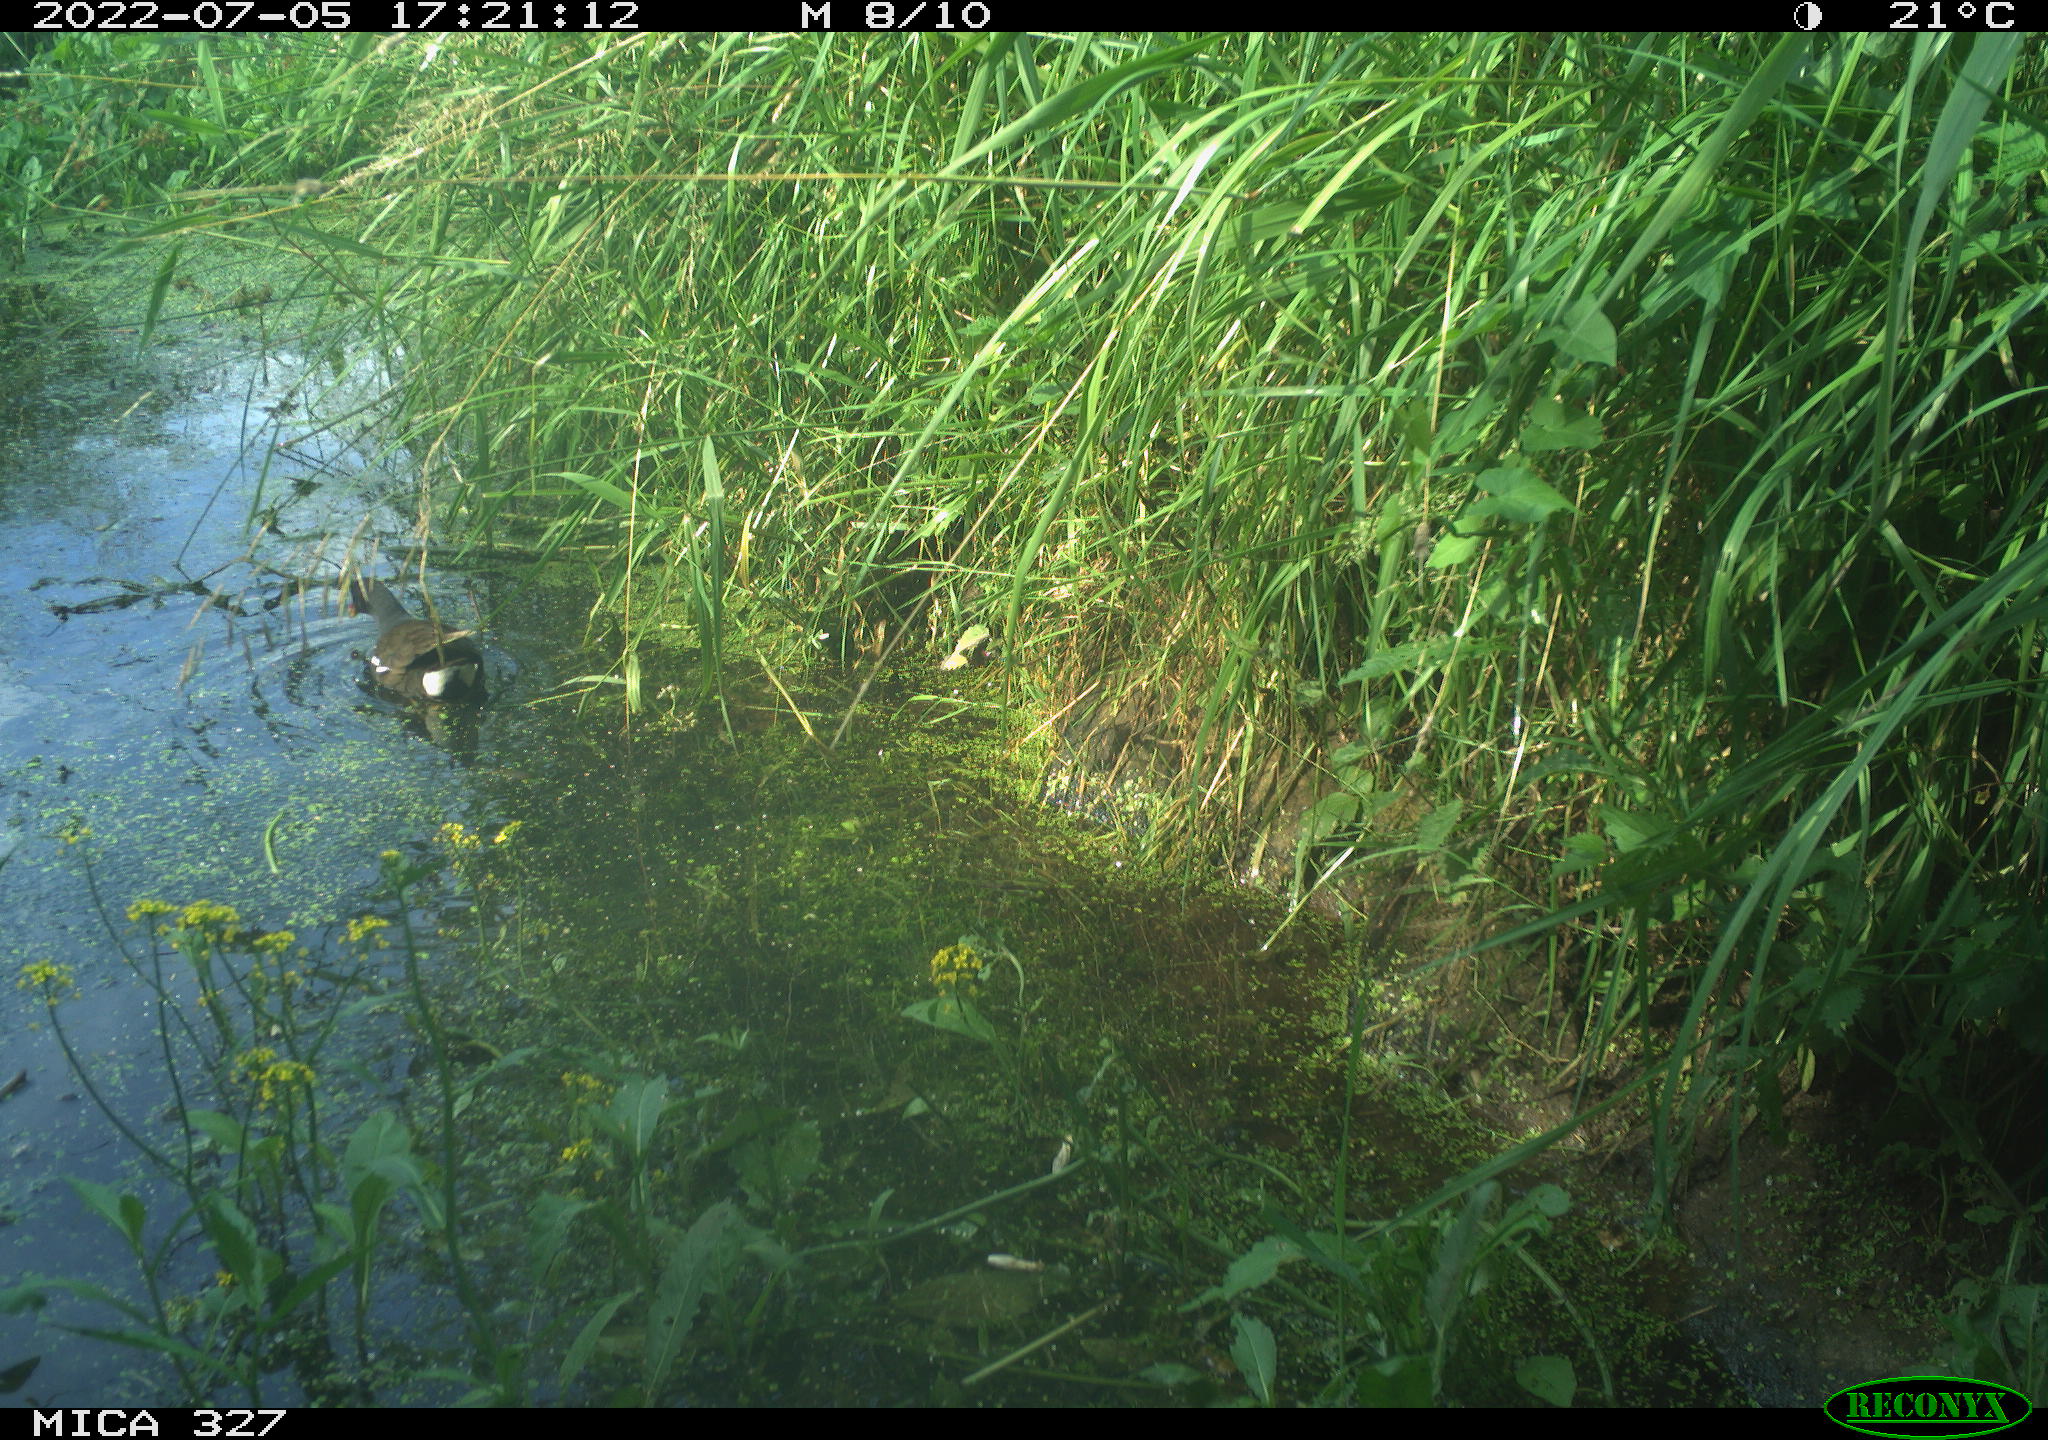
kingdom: Animalia
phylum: Chordata
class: Aves
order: Gruiformes
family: Rallidae
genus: Gallinula
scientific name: Gallinula chloropus
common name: Common moorhen
